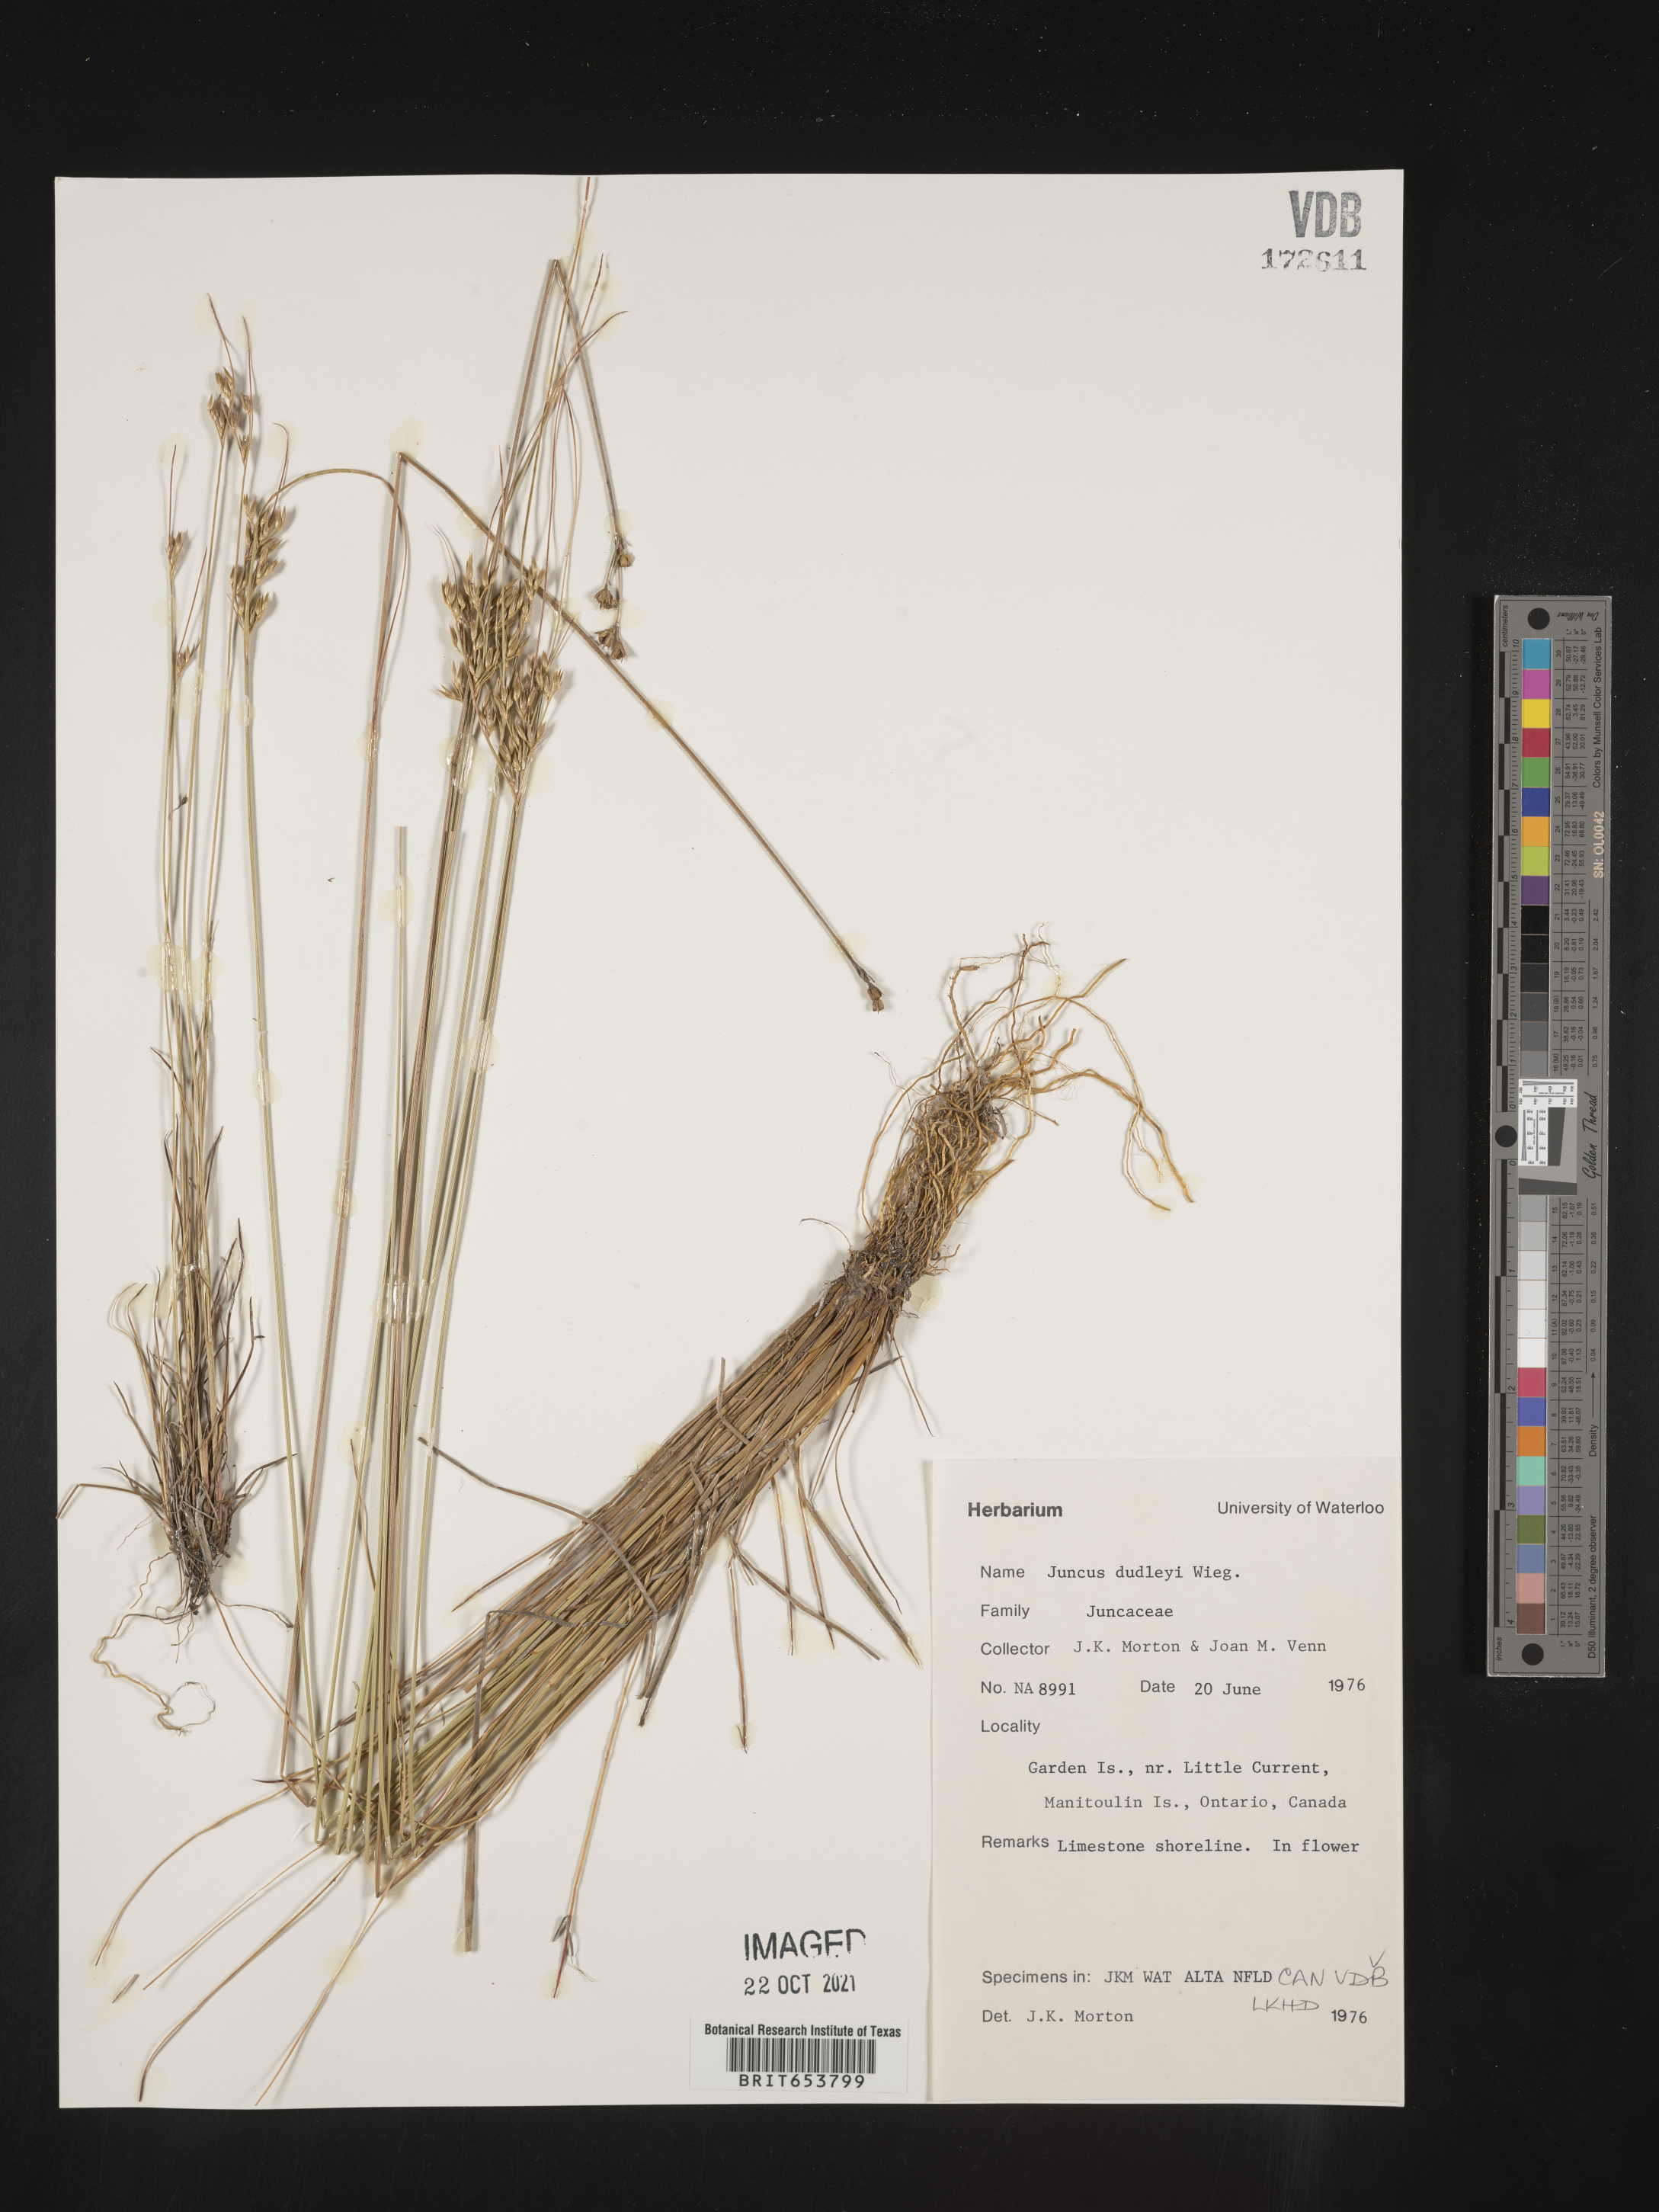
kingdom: Plantae
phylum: Tracheophyta
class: Liliopsida
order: Poales
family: Juncaceae
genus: Juncus
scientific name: Juncus
